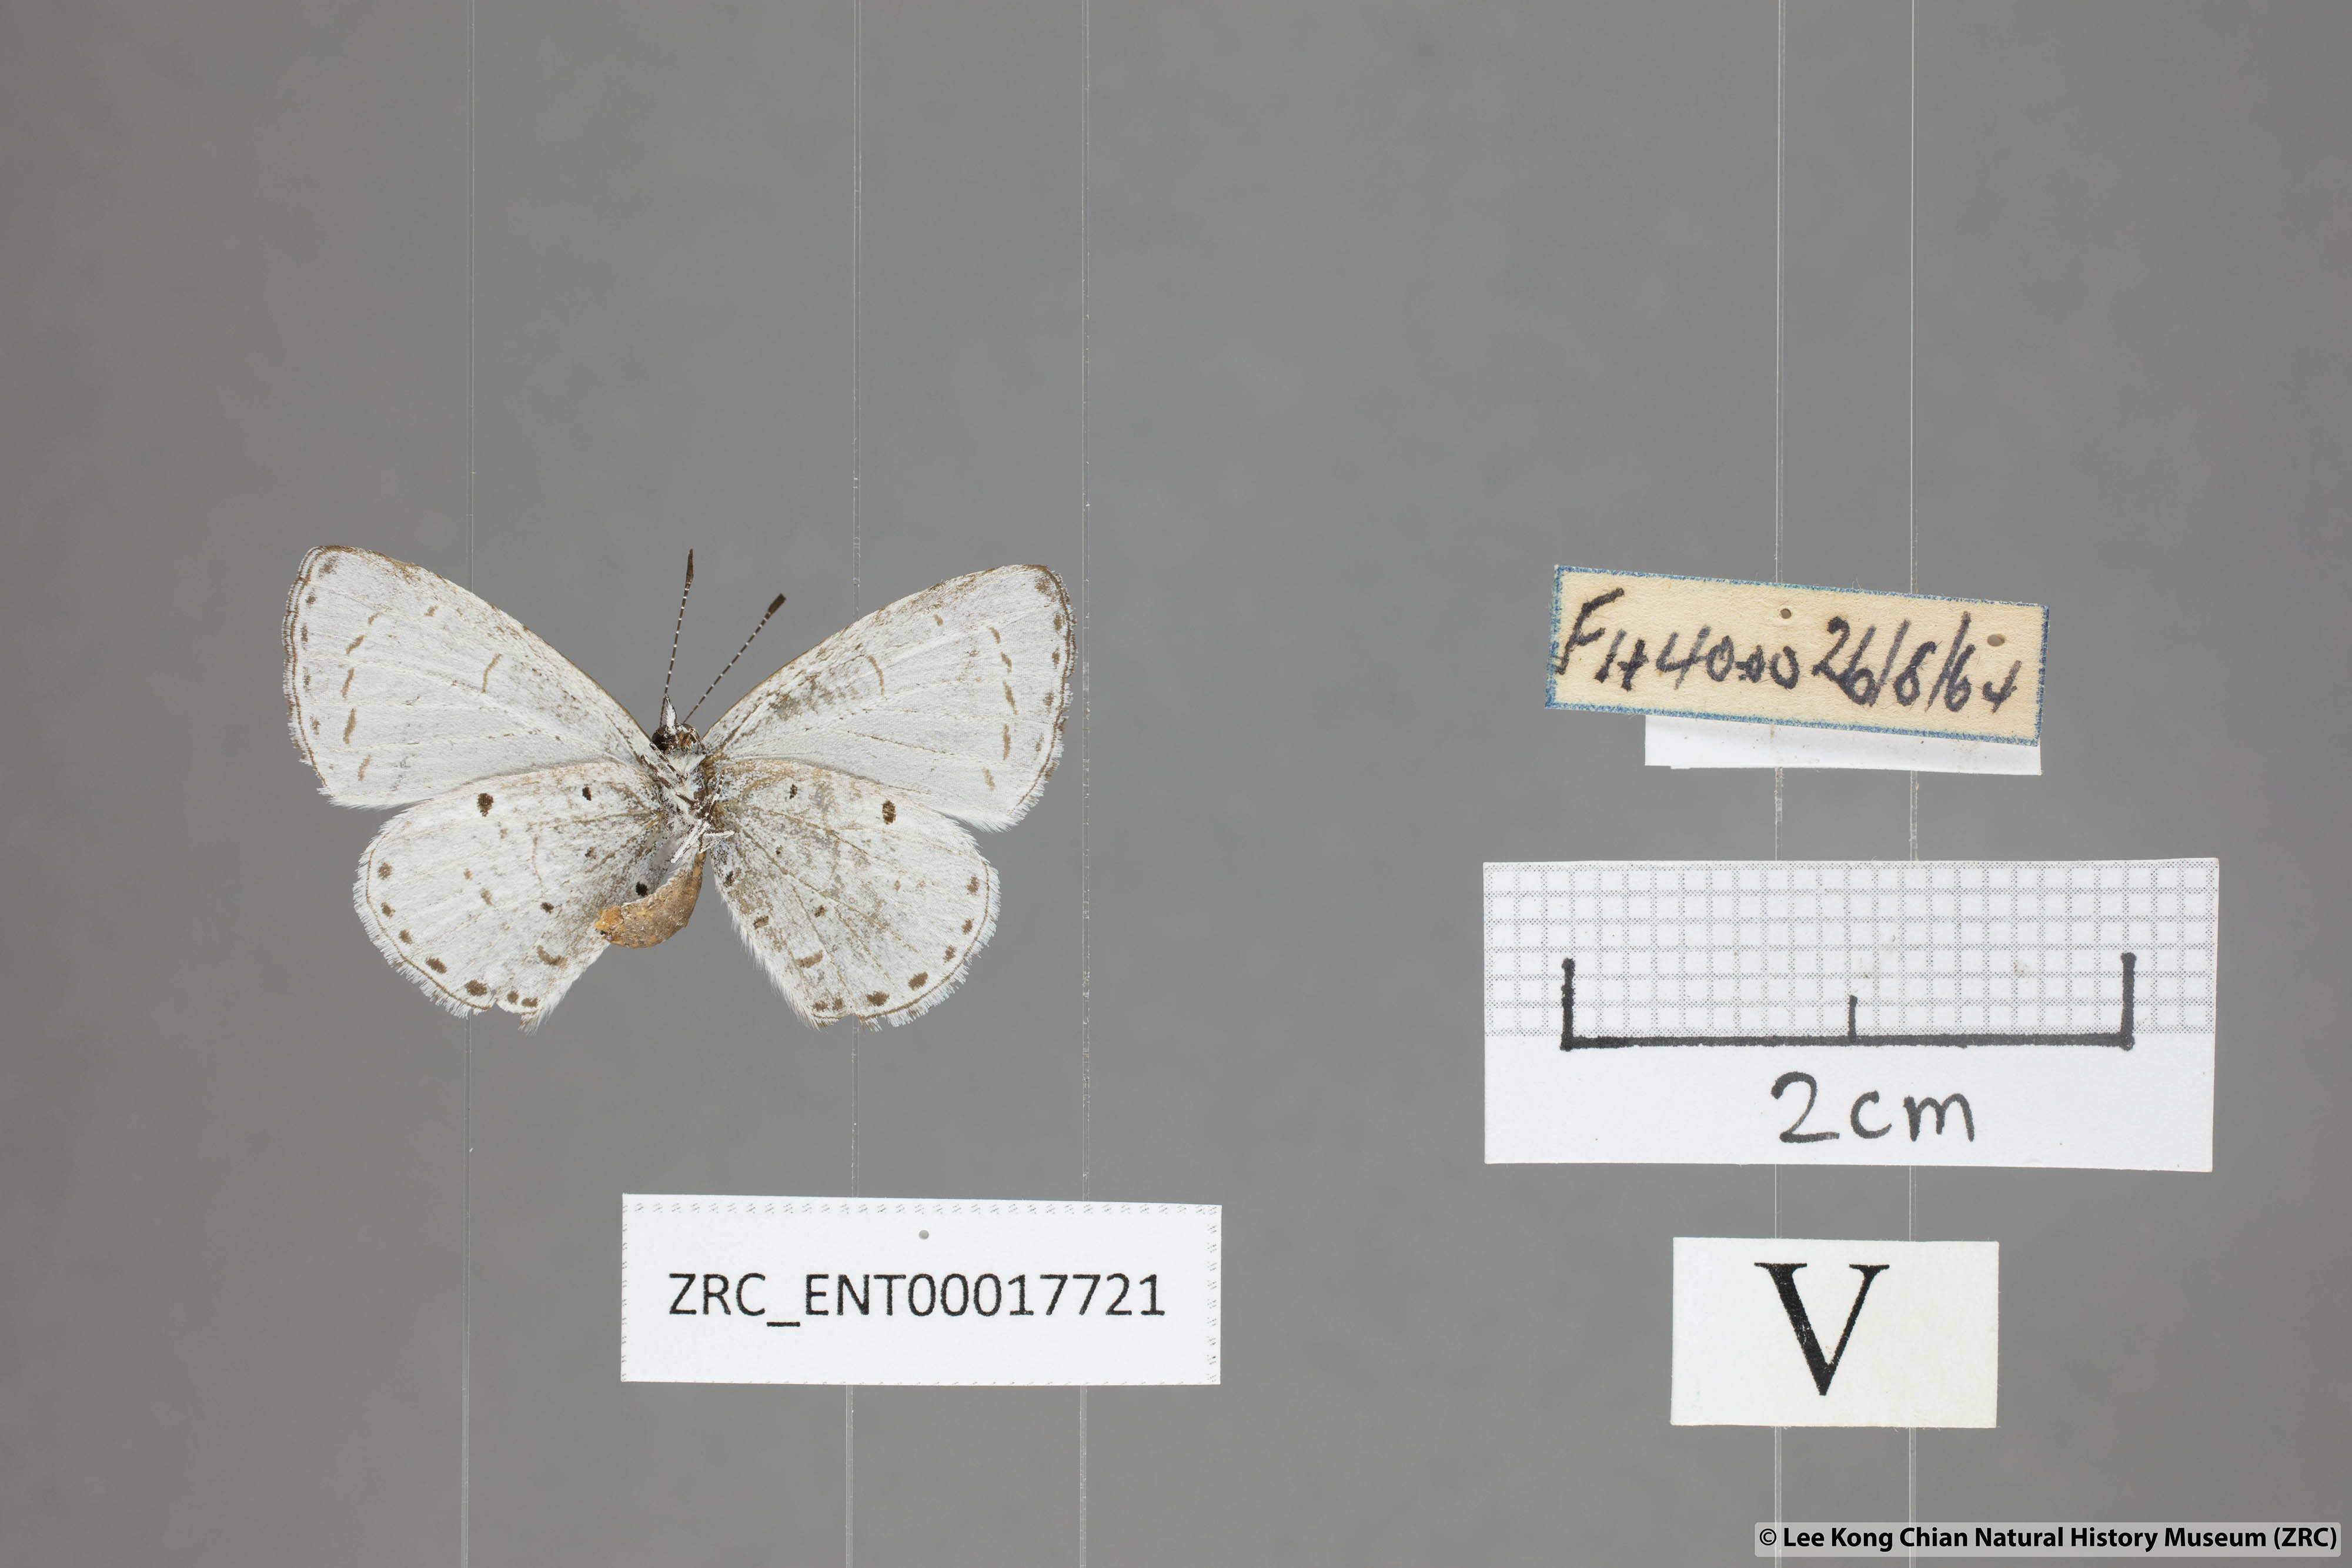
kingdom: Animalia
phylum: Arthropoda
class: Insecta
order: Lepidoptera
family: Lycaenidae
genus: Udara
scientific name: Udara
